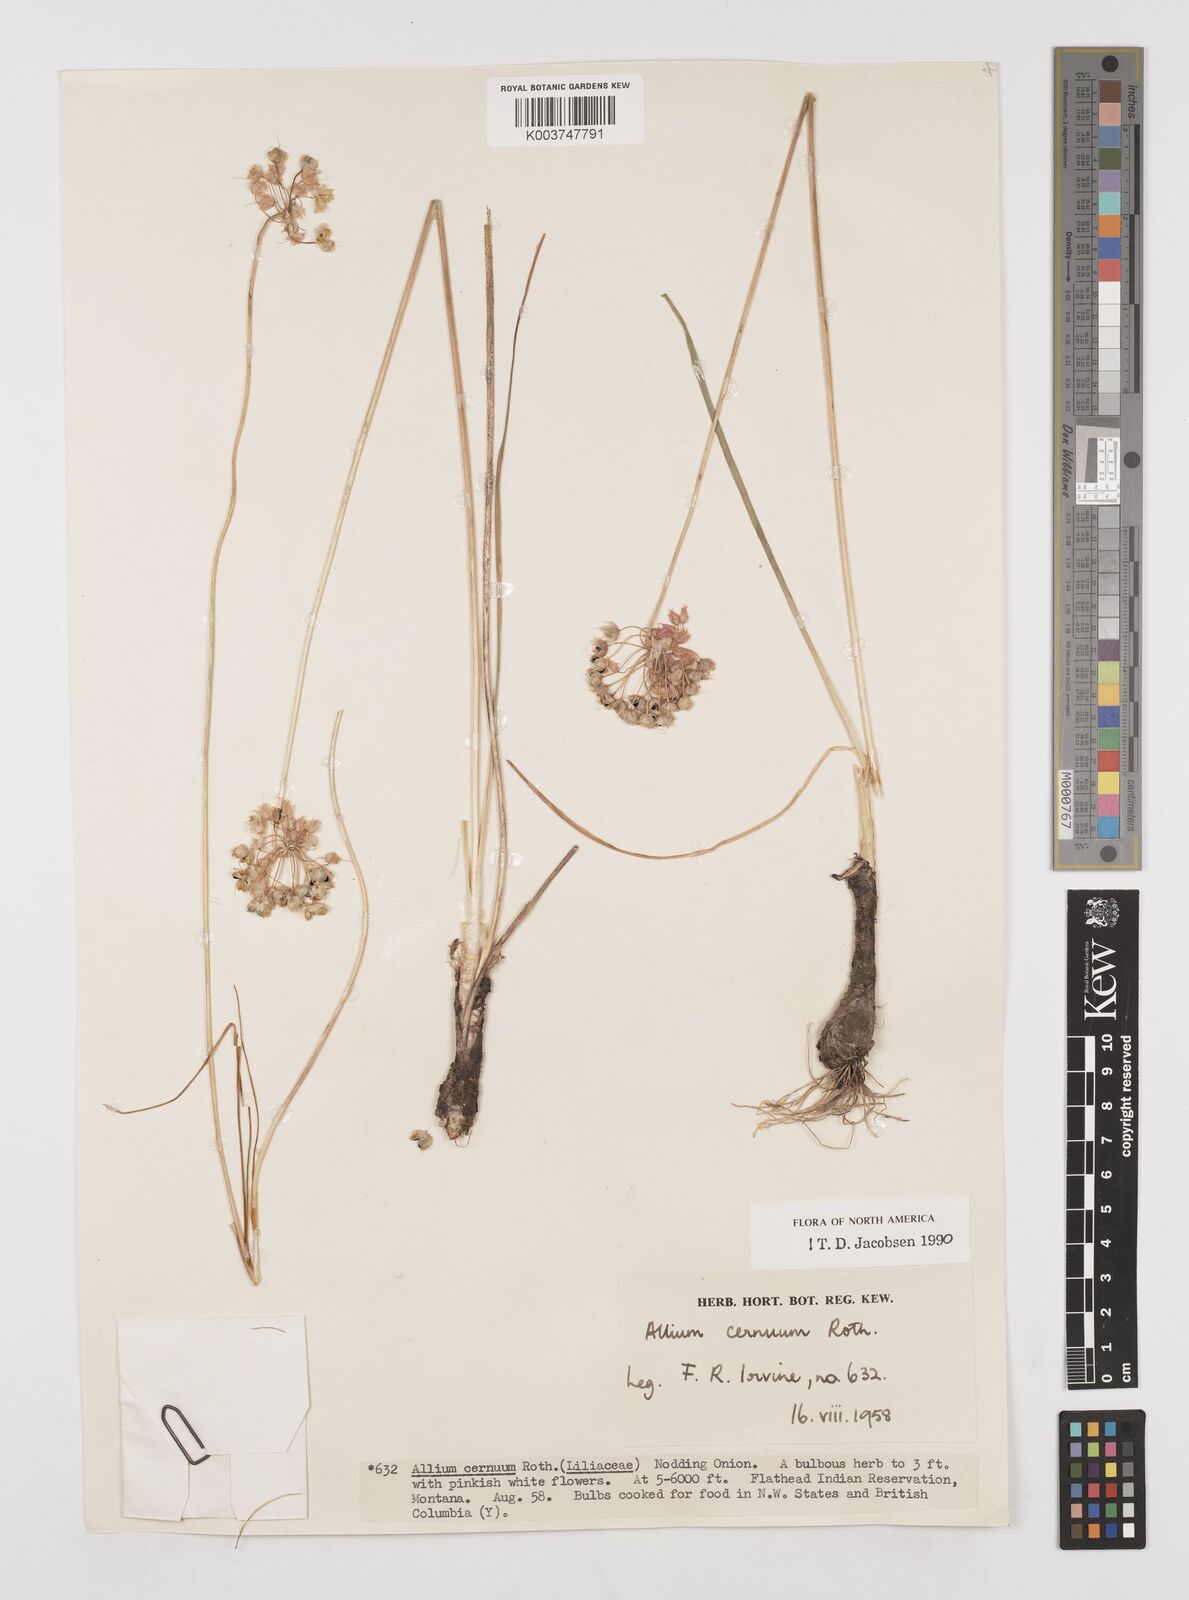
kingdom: Plantae
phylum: Tracheophyta
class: Liliopsida
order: Asparagales
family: Amaryllidaceae
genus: Allium
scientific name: Allium cernuum
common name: Nodding onion
